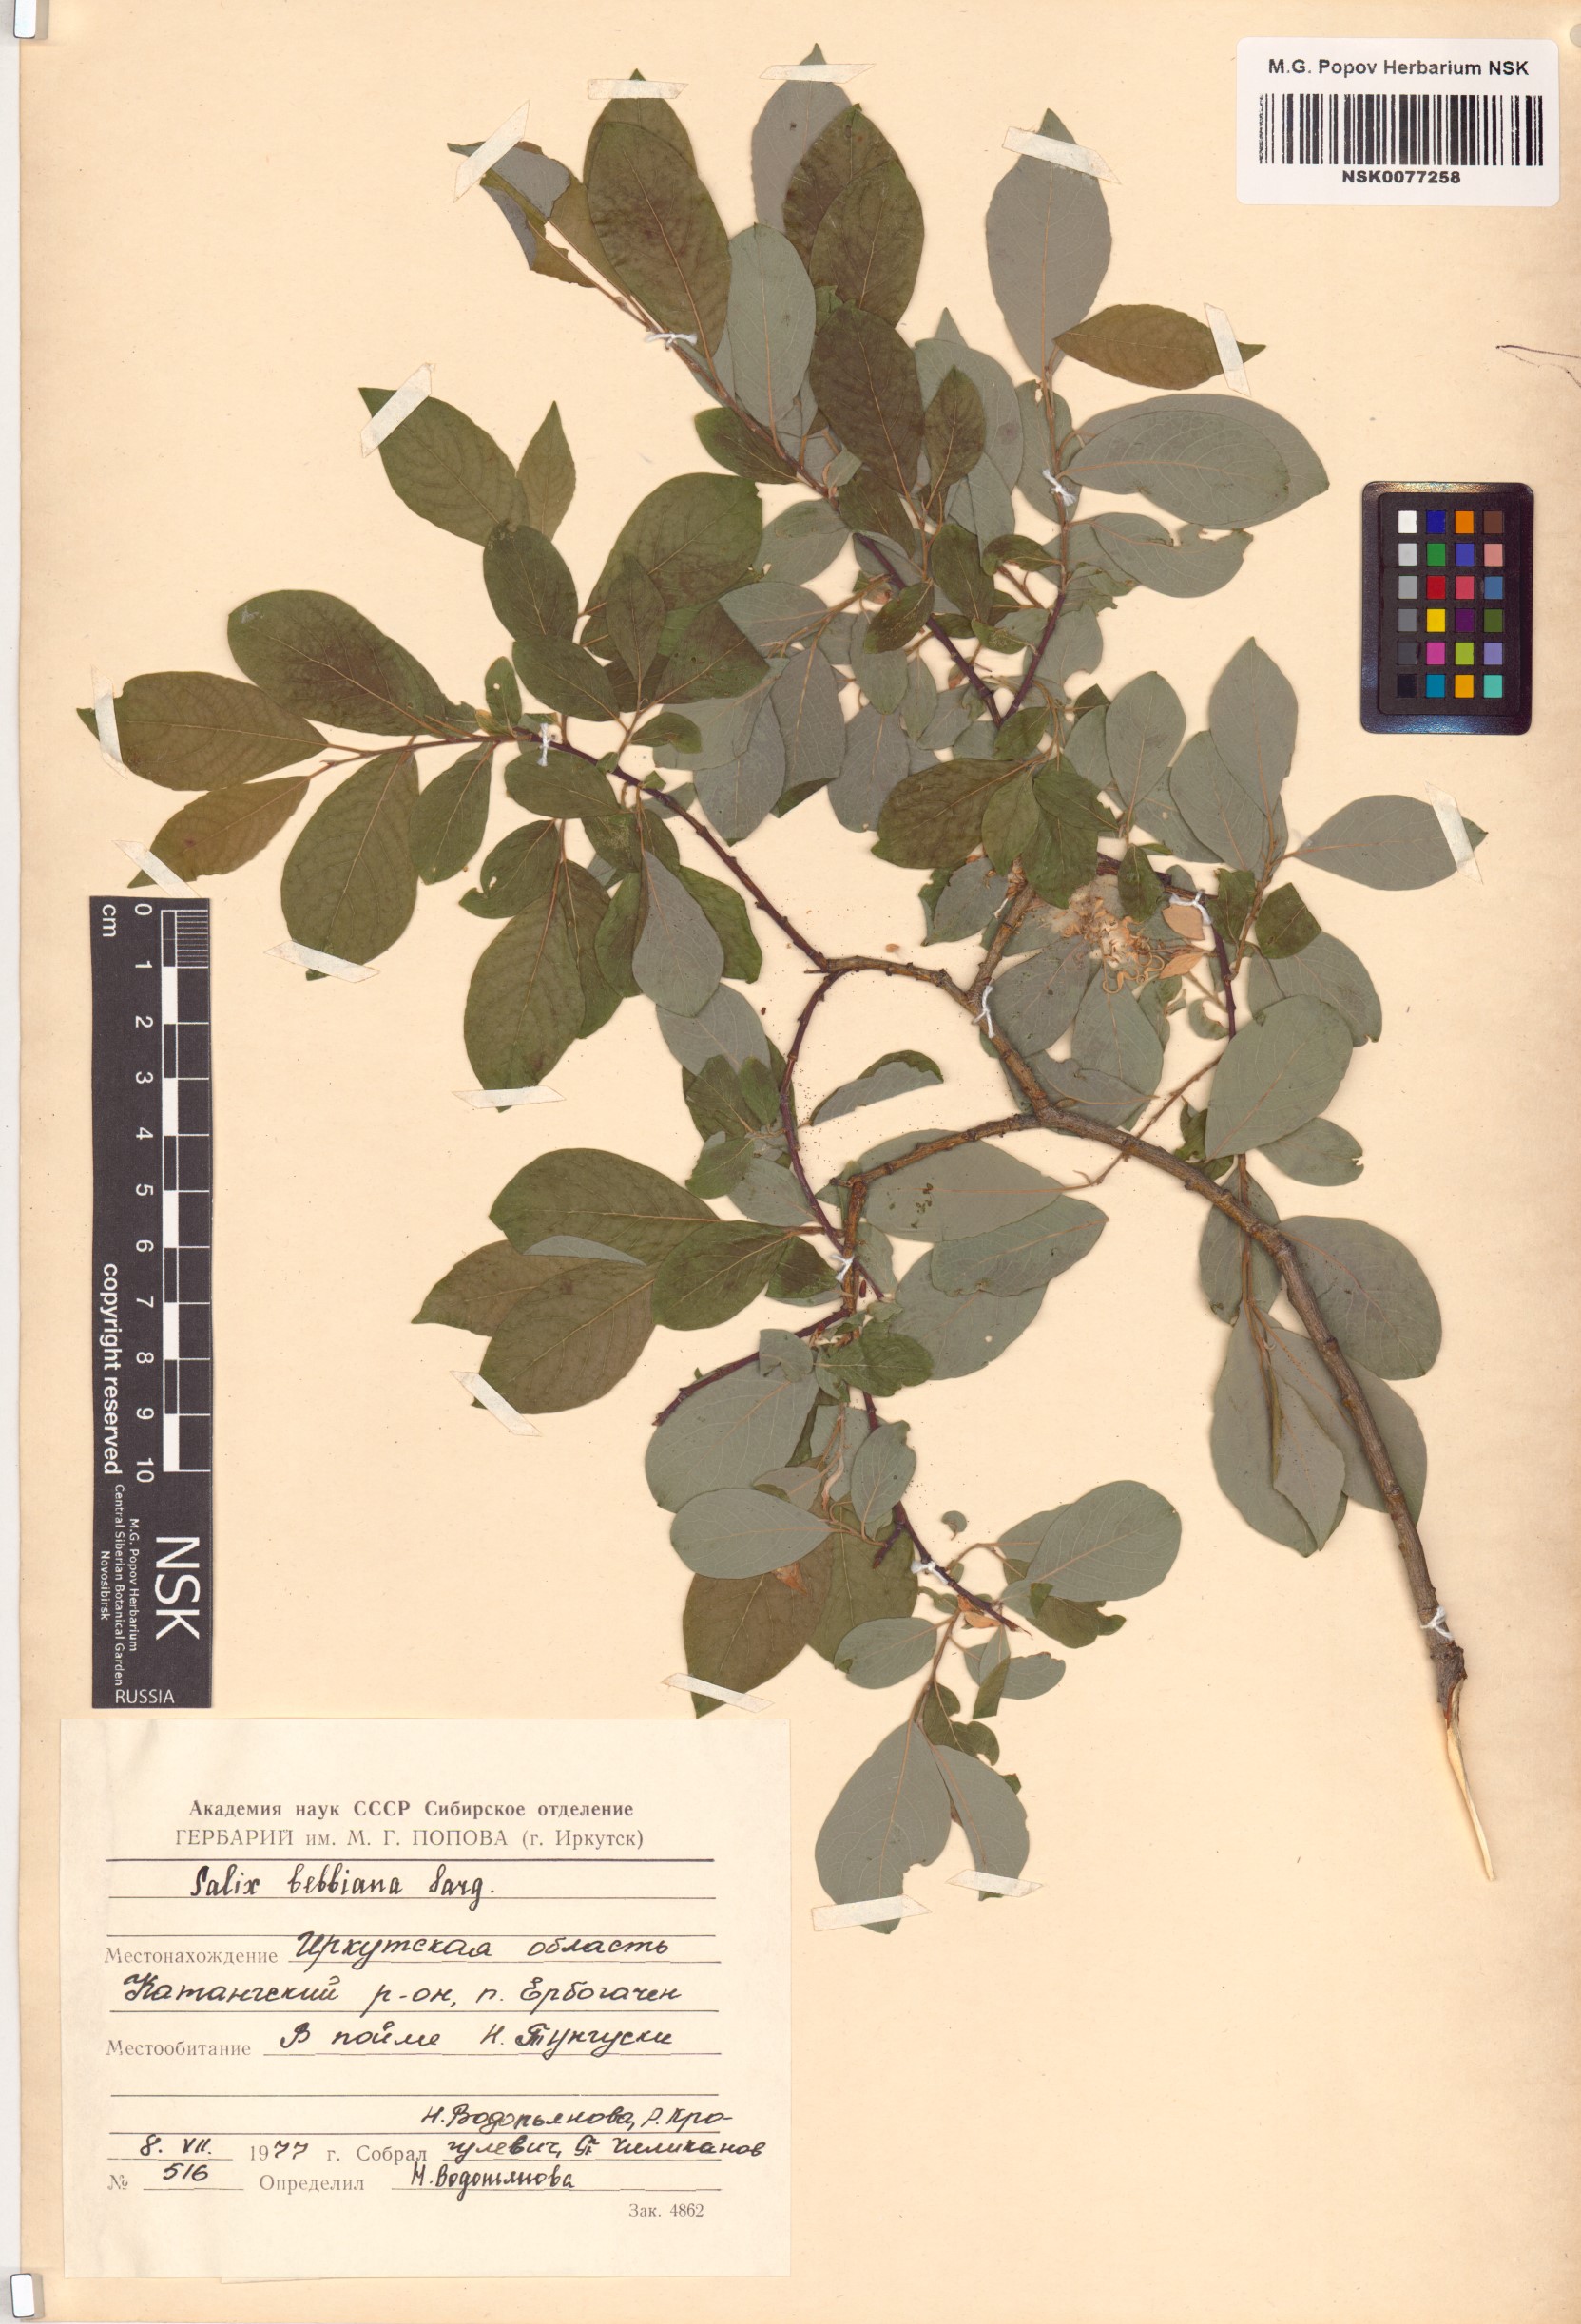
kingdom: Plantae
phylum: Tracheophyta
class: Magnoliopsida
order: Malpighiales
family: Salicaceae
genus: Salix
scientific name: Salix bebbiana
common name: Bebb's willow
